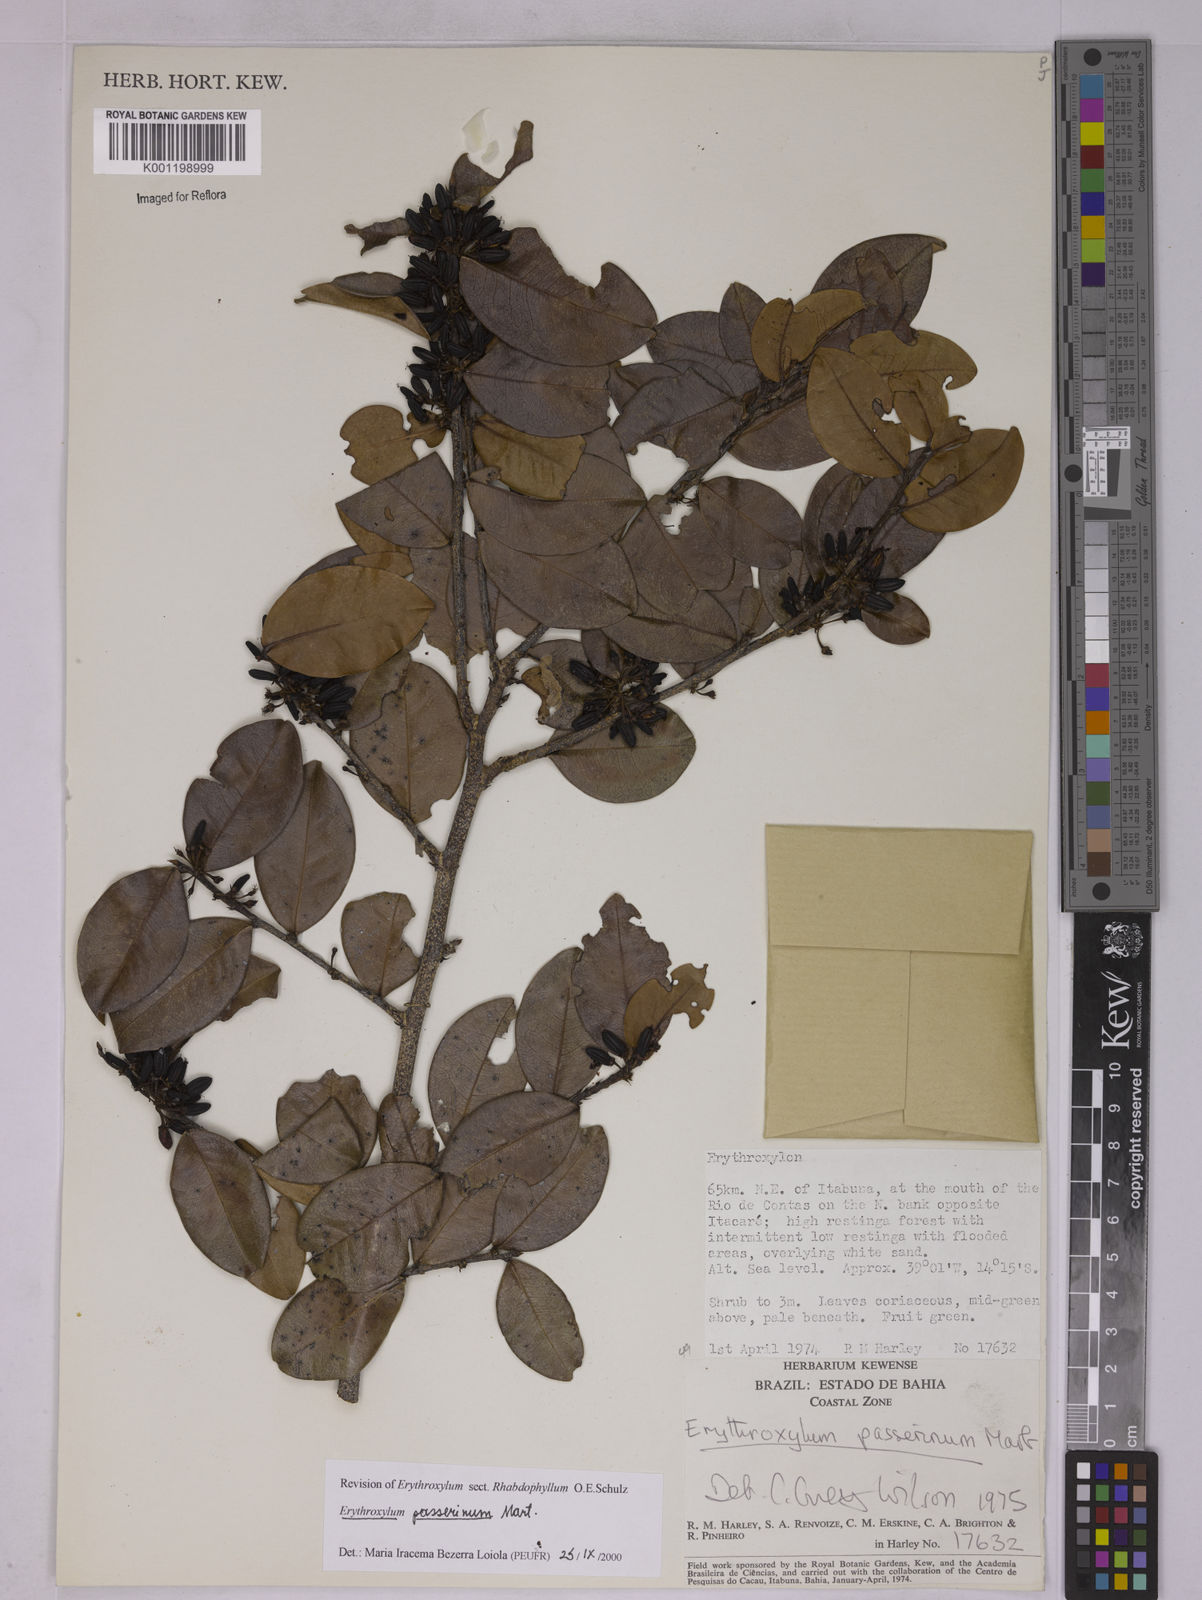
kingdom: Plantae
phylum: Tracheophyta
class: Magnoliopsida
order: Malpighiales
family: Erythroxylaceae
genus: Erythroxylum
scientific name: Erythroxylum passerinum
